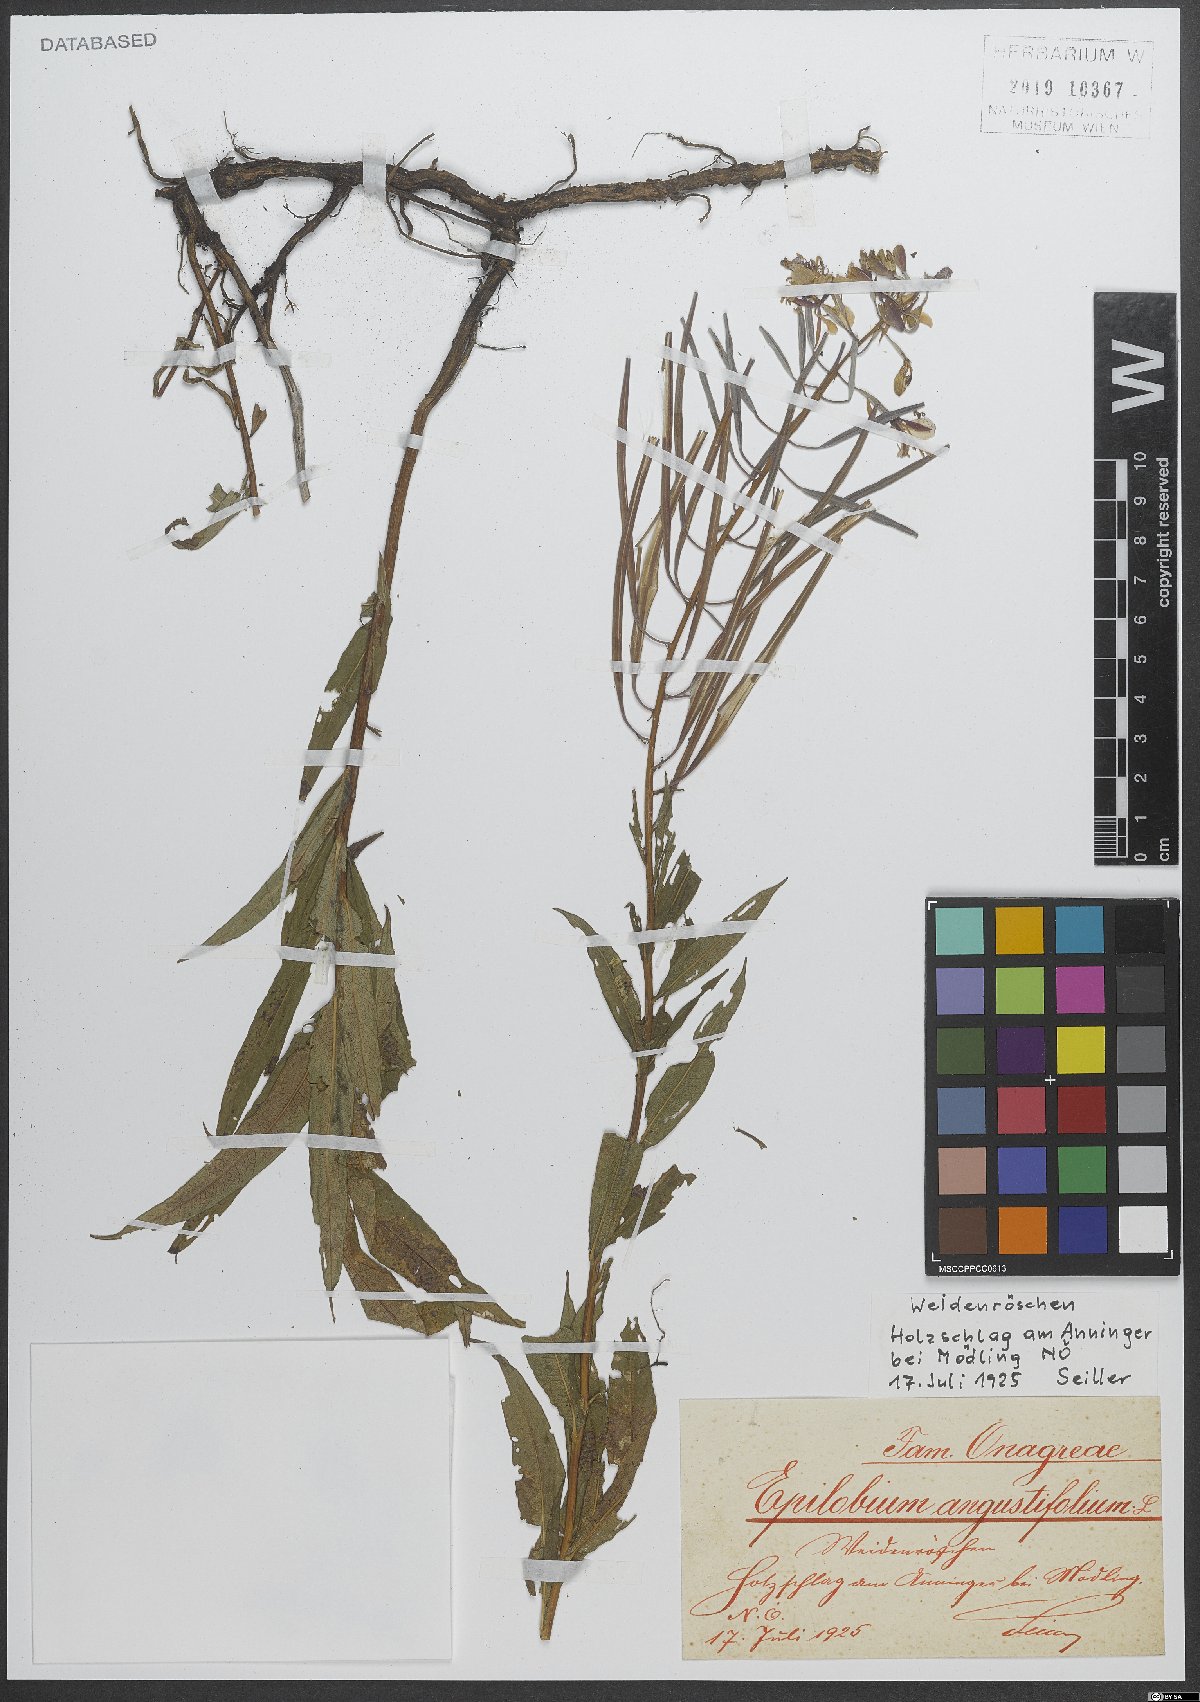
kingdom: Plantae
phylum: Tracheophyta
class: Magnoliopsida
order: Myrtales
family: Onagraceae
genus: Chamaenerion
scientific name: Chamaenerion angustifolium
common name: Fireweed
